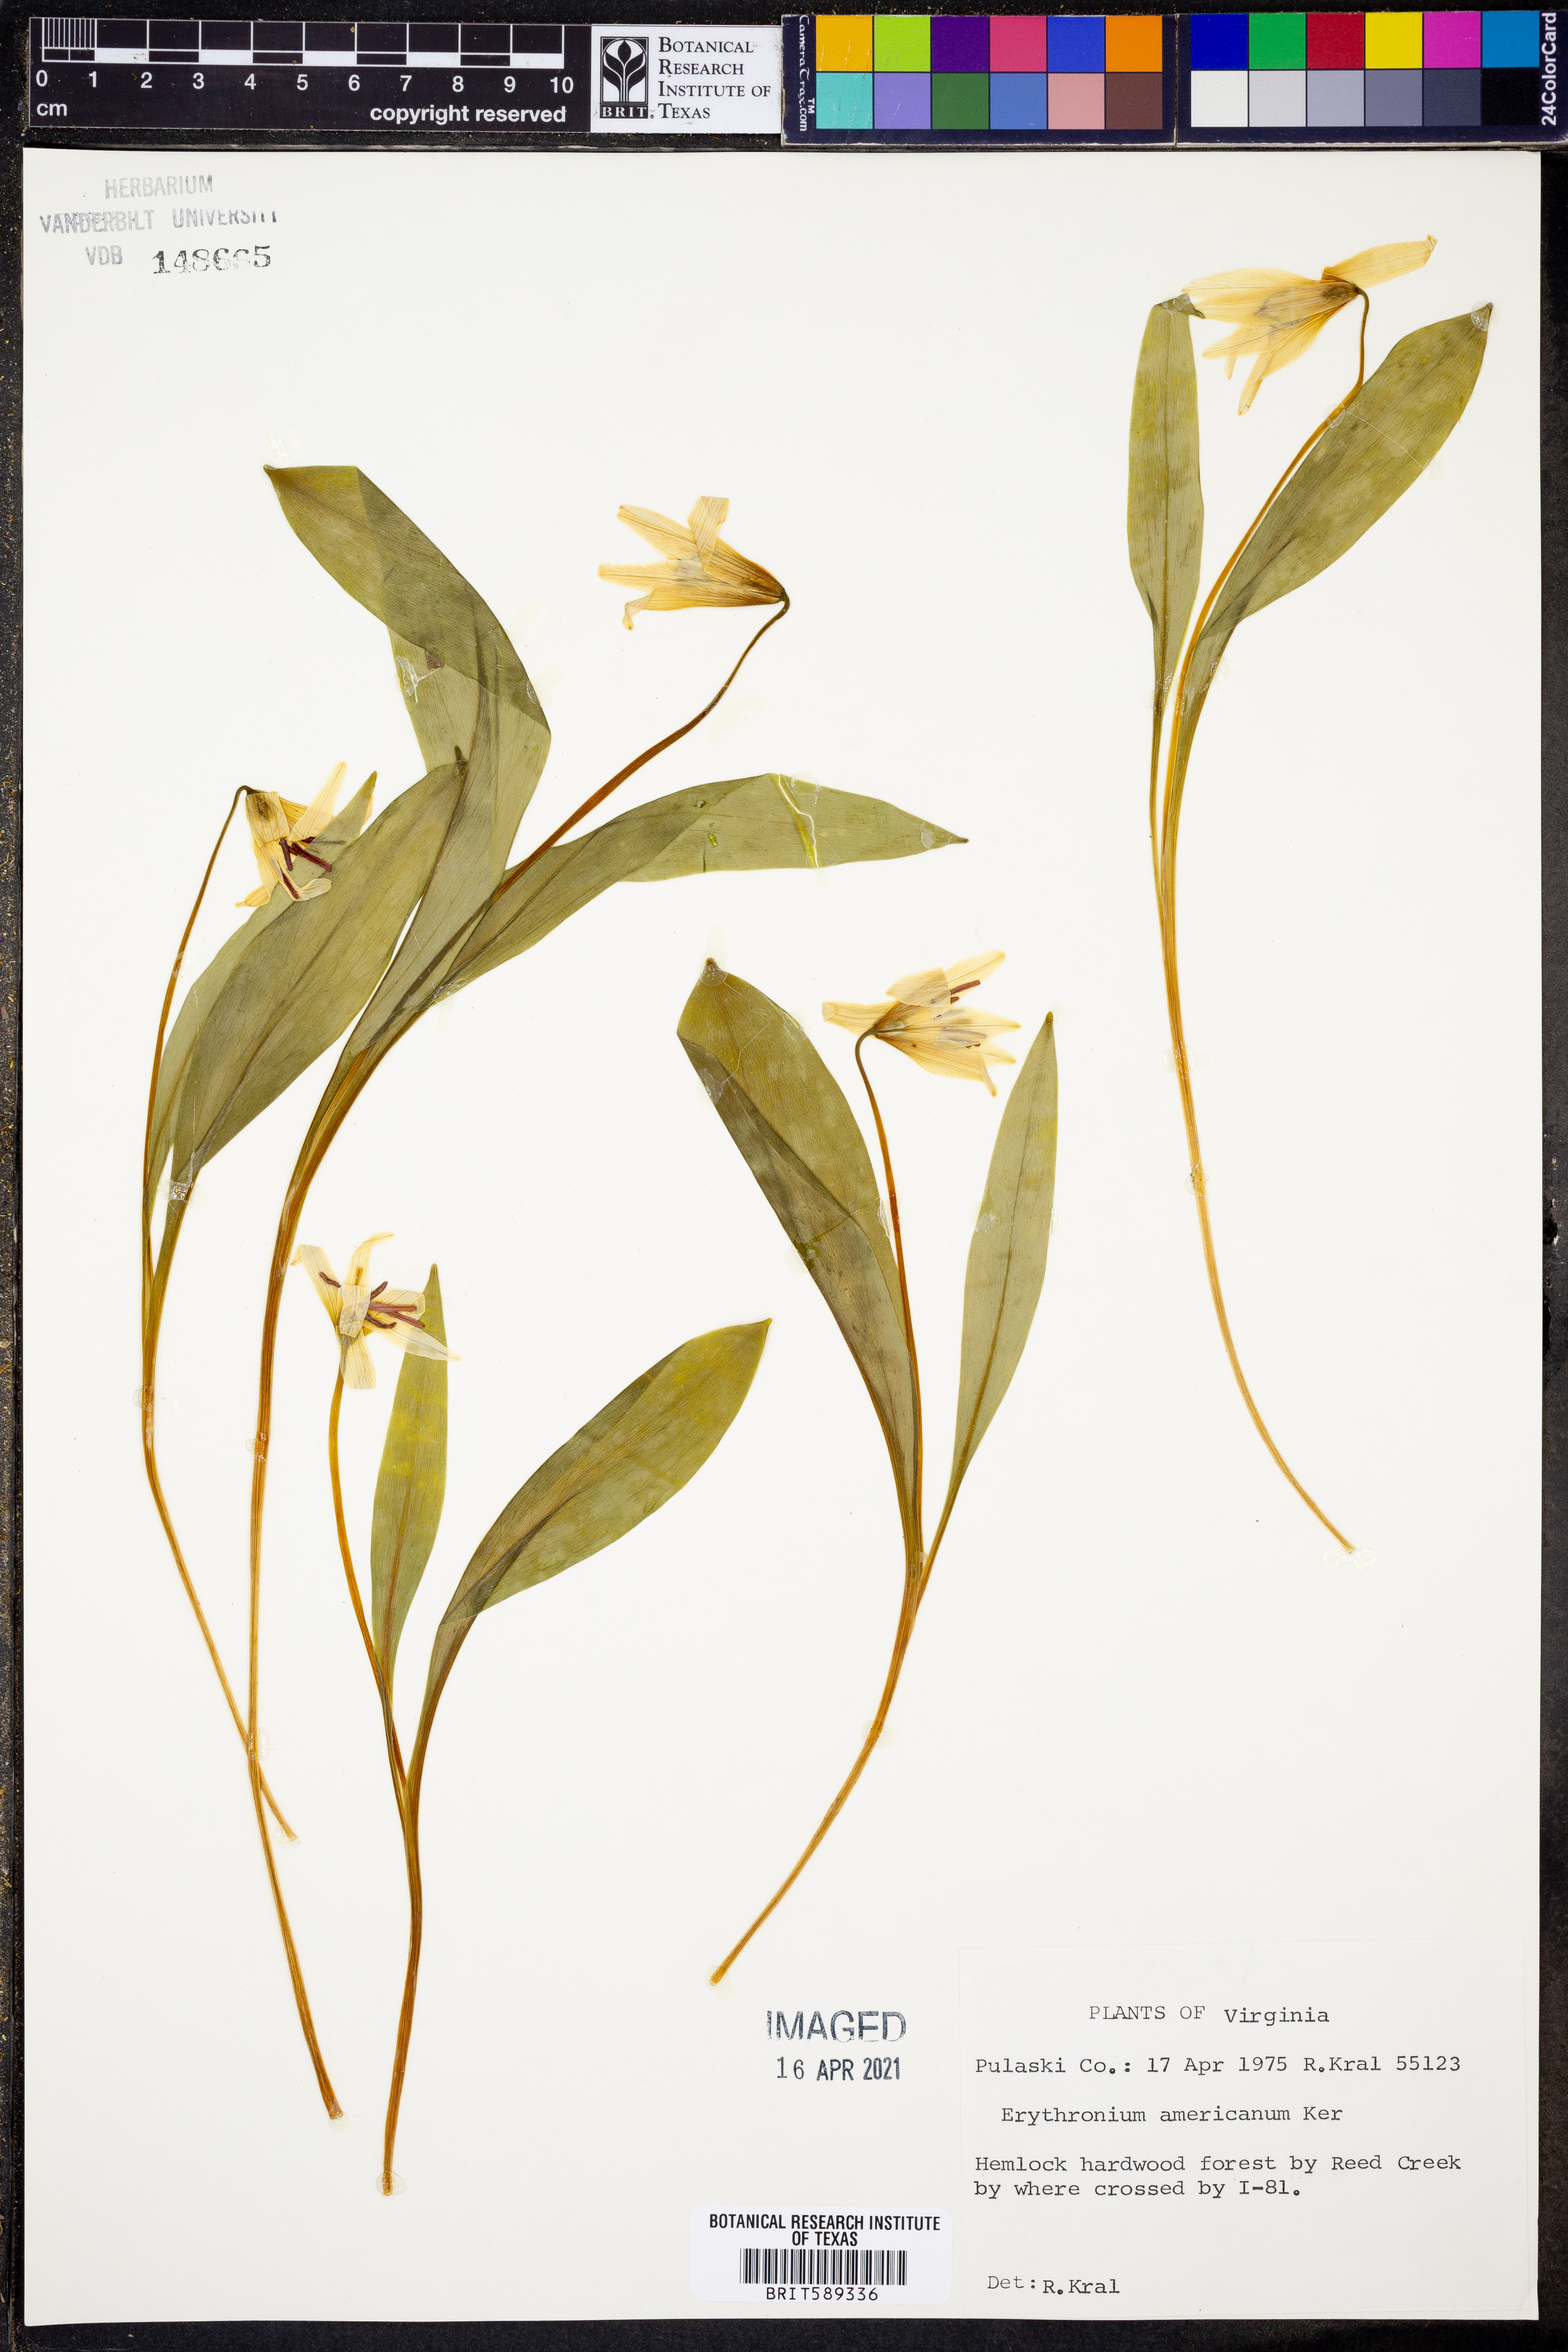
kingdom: Plantae
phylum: Tracheophyta
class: Liliopsida
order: Liliales
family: Liliaceae
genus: Erythronium
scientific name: Erythronium americanum
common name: Yellow adder's-tongue
